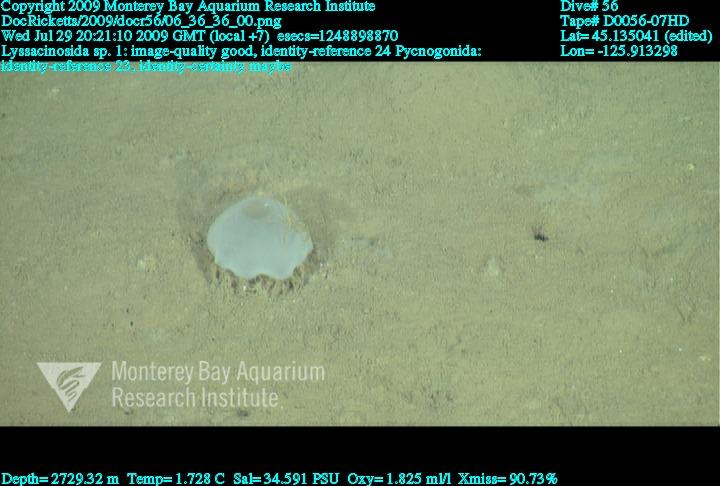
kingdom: Animalia
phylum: Porifera
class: Hexactinellida
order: Lyssacinosida
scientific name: Lyssacinosida
